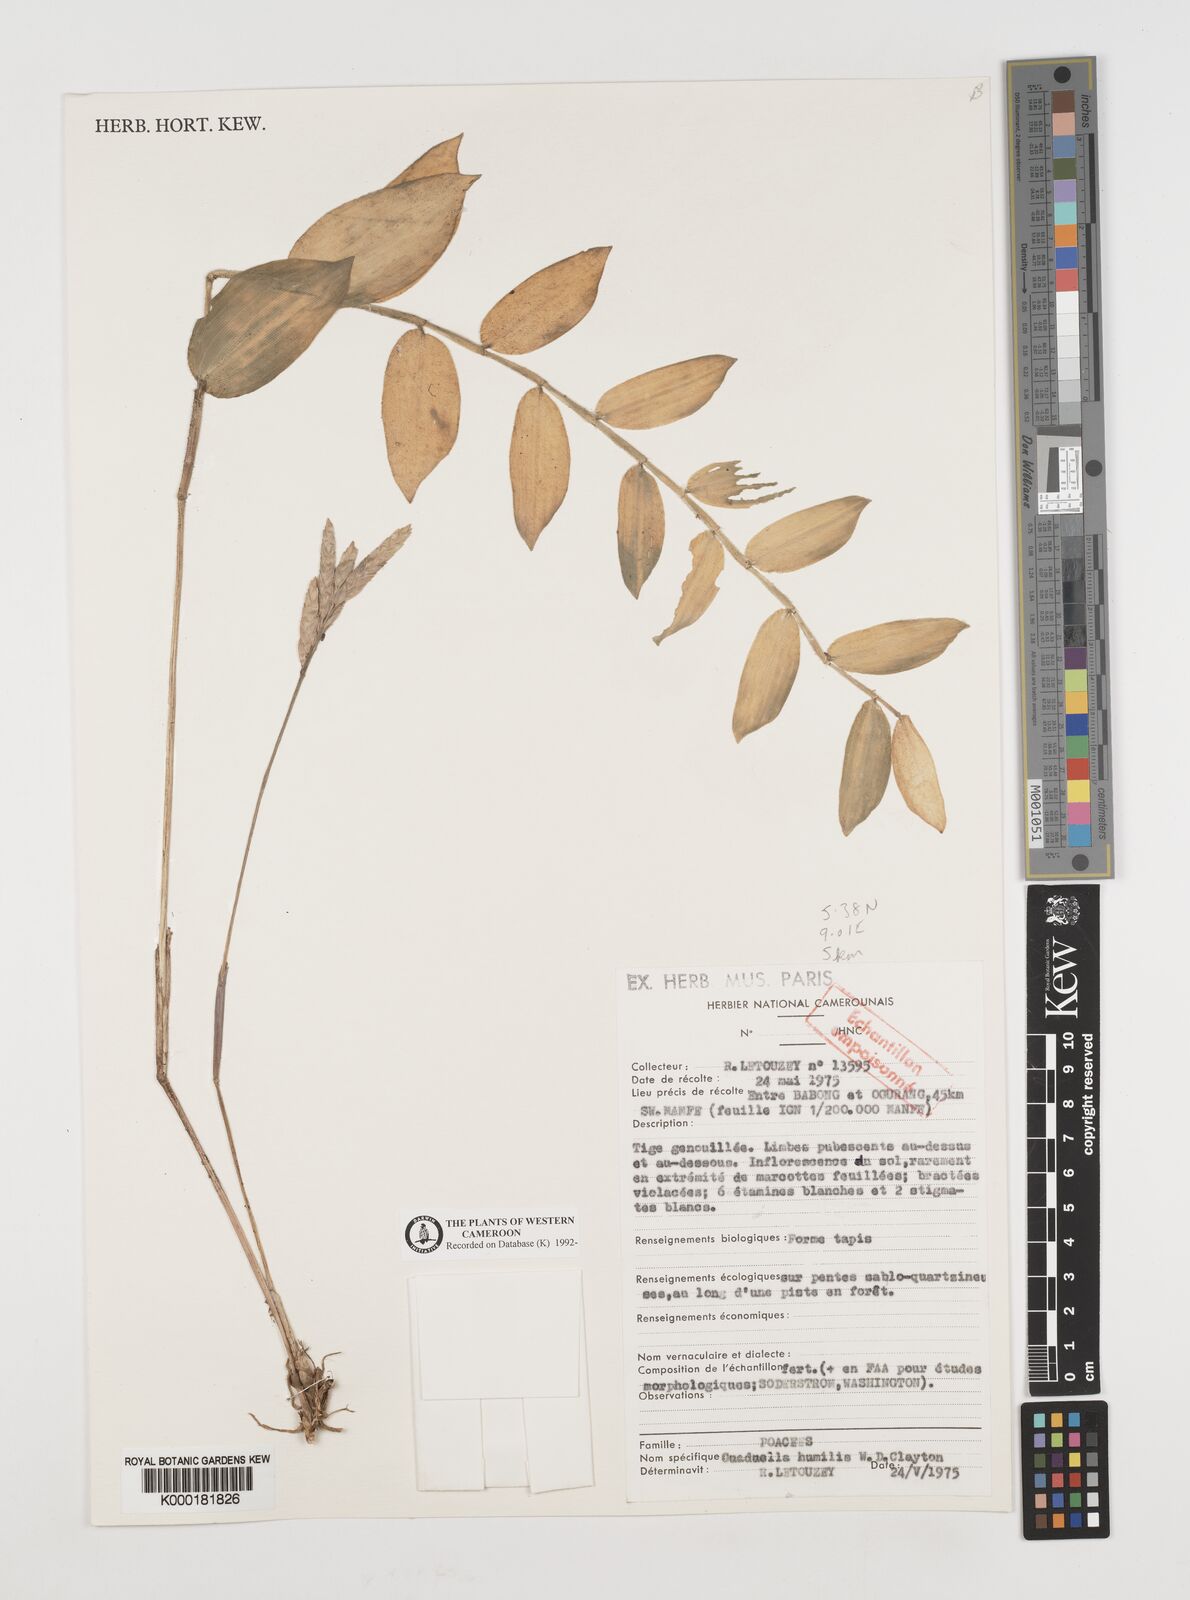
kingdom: Plantae
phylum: Tracheophyta
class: Liliopsida
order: Poales
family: Poaceae
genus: Guaduella
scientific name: Guaduella humilis
